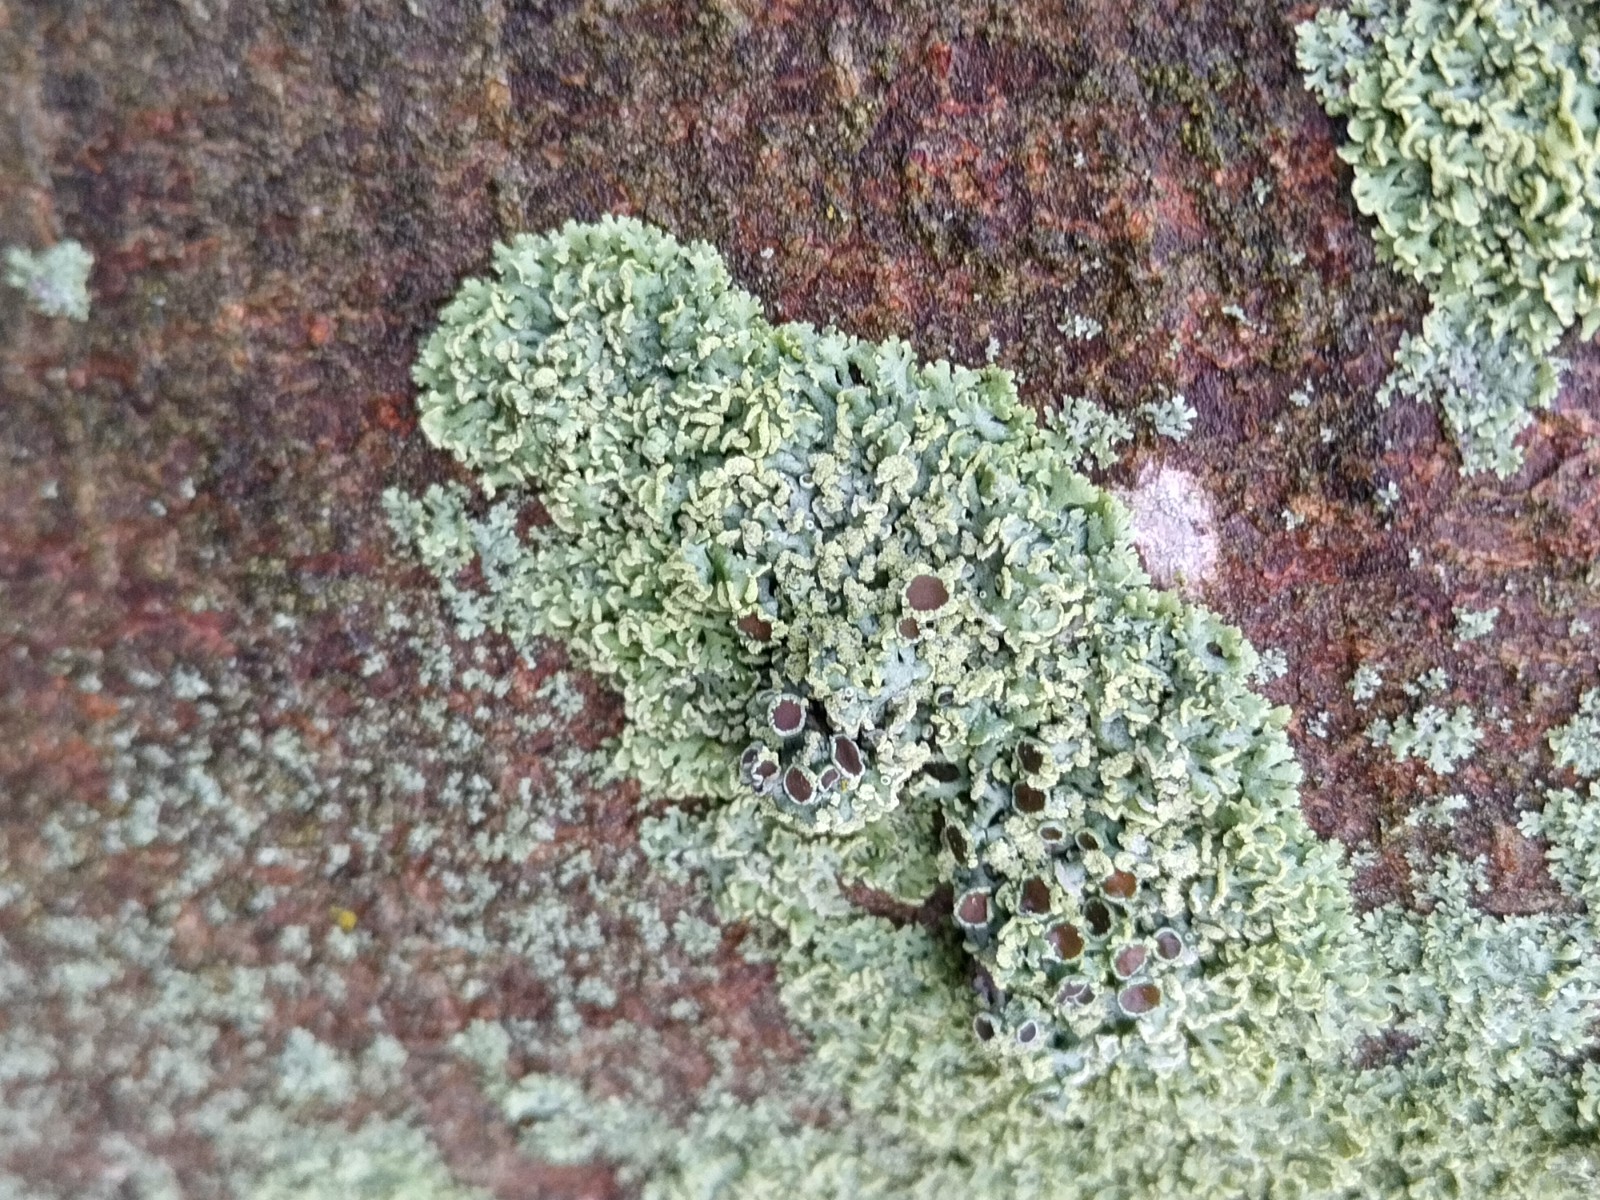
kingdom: Fungi
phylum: Ascomycota
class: Lecanoromycetes
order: Caliciales
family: Physciaceae
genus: Physcia
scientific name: Physcia tenella
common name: spæd rosetlav
